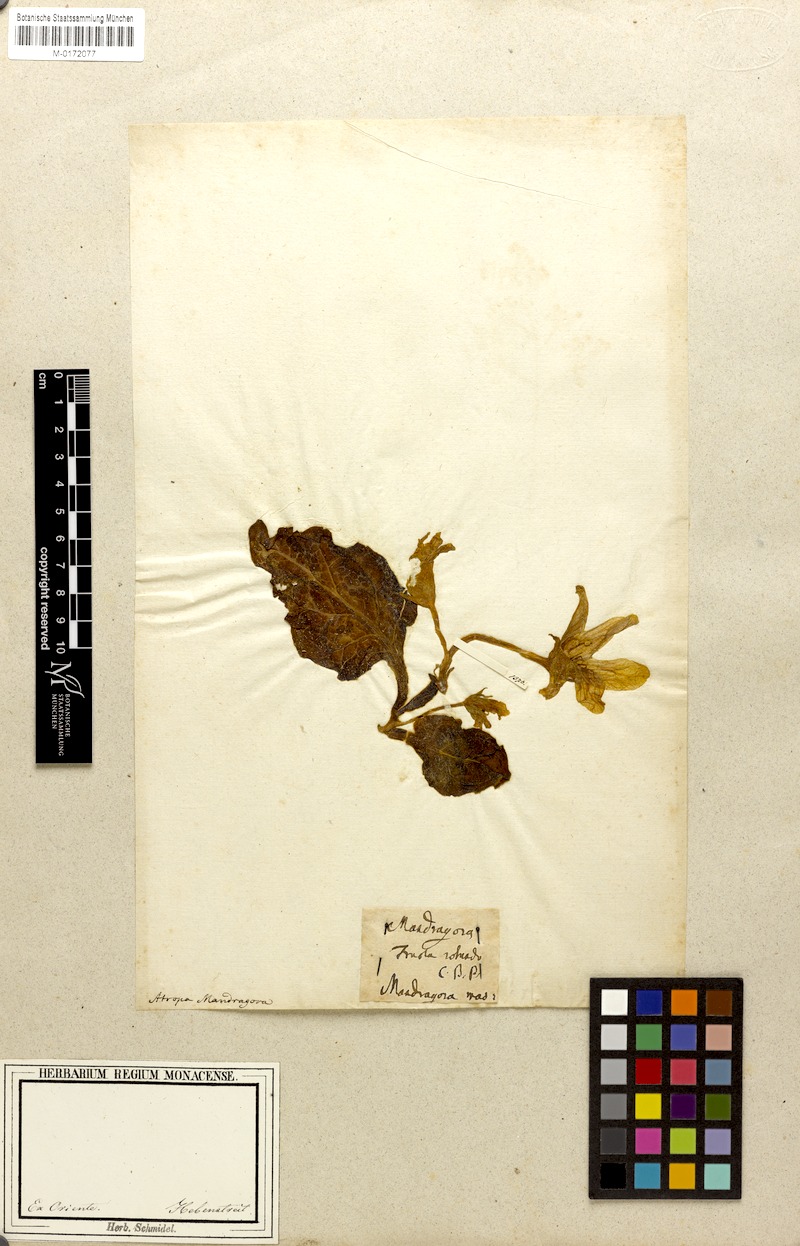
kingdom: Plantae
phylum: Tracheophyta
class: Magnoliopsida
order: Solanales
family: Solanaceae
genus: Mandragora
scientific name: Mandragora officinarum
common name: Mandrake
